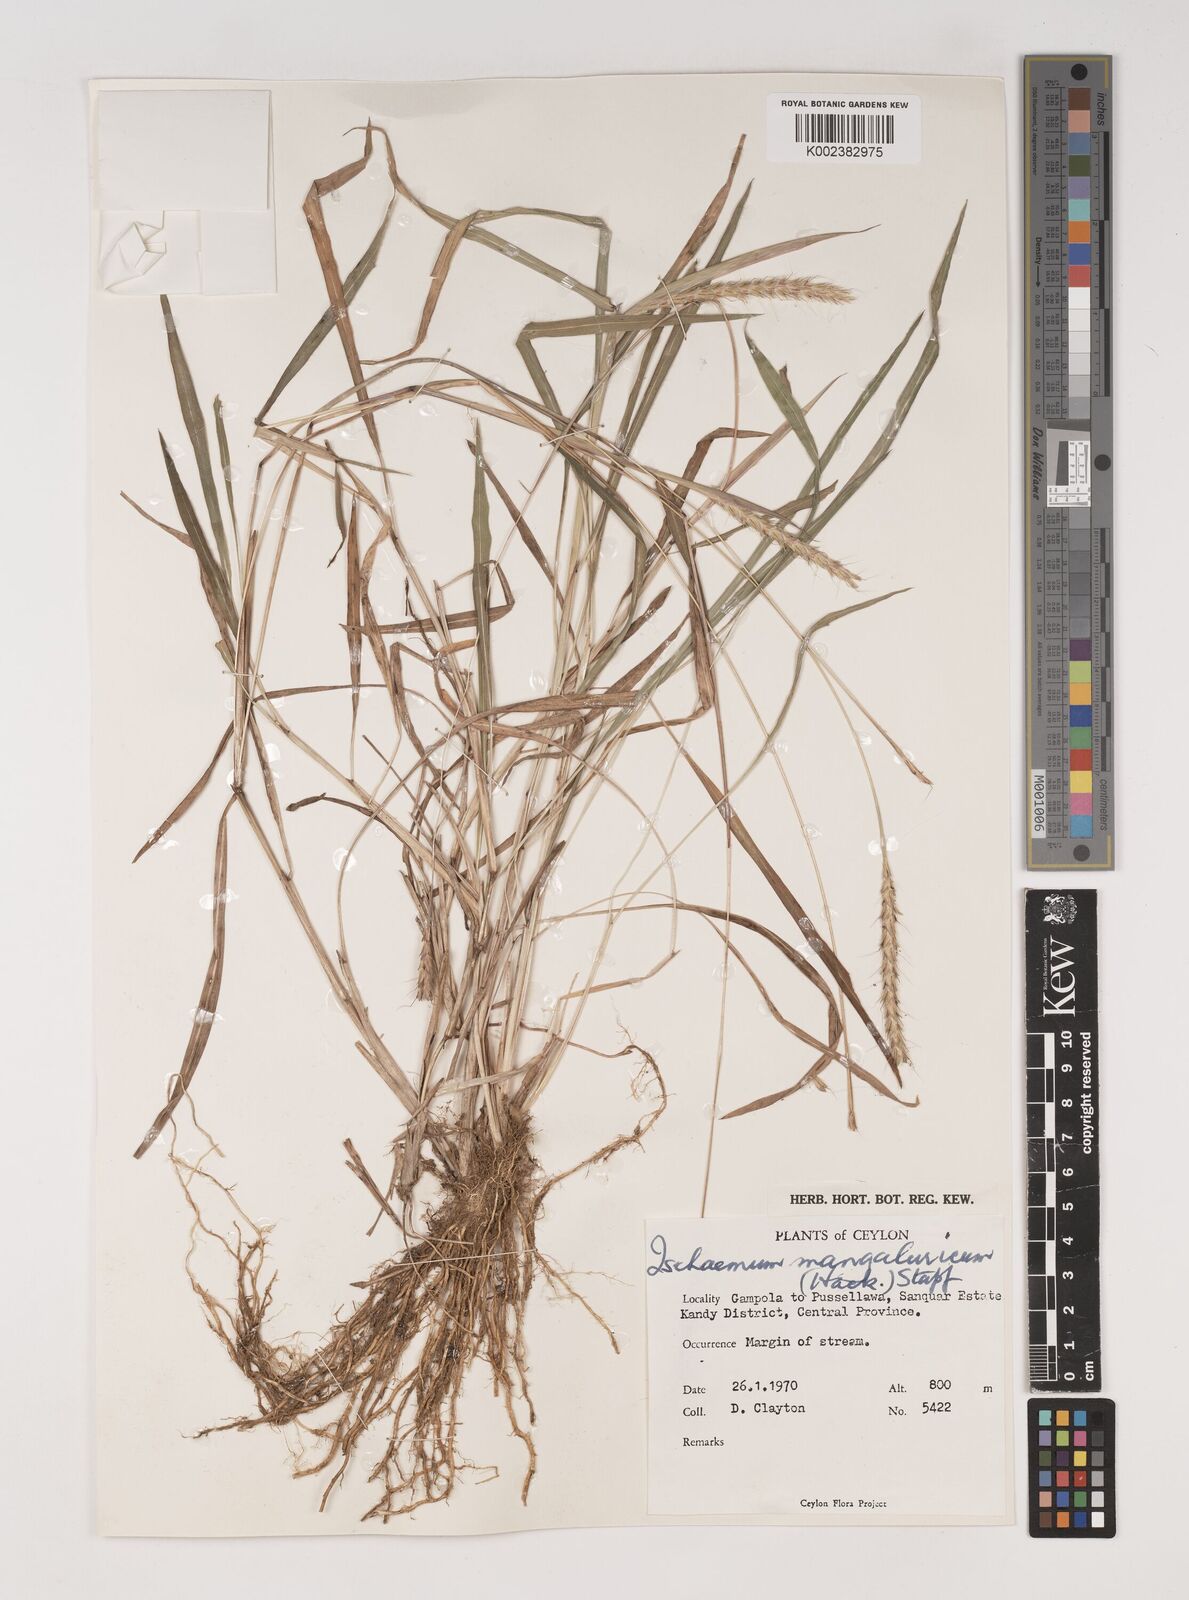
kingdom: Plantae
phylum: Tracheophyta
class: Liliopsida
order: Poales
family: Poaceae
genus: Ischaemum
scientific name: Ischaemum barbatum
